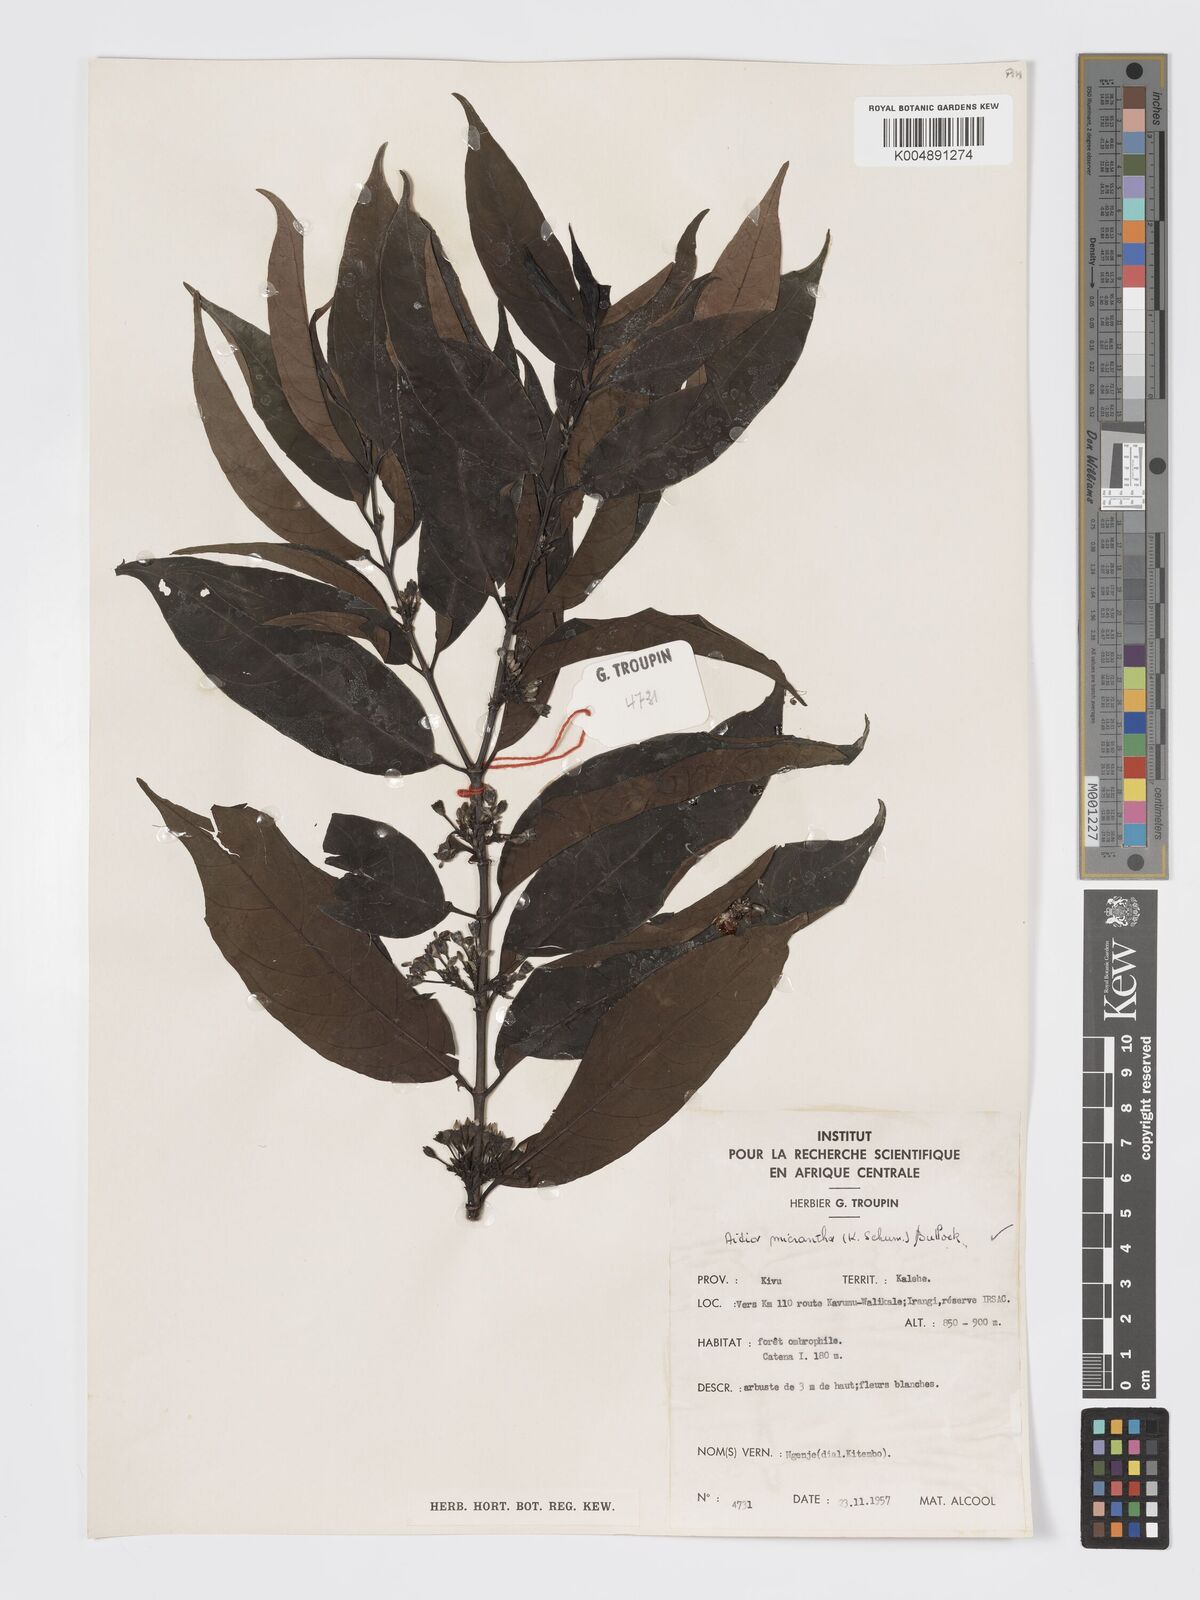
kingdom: Plantae
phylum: Tracheophyta
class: Magnoliopsida
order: Gentianales
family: Rubiaceae
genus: Aidia
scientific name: Aidia micrantha
